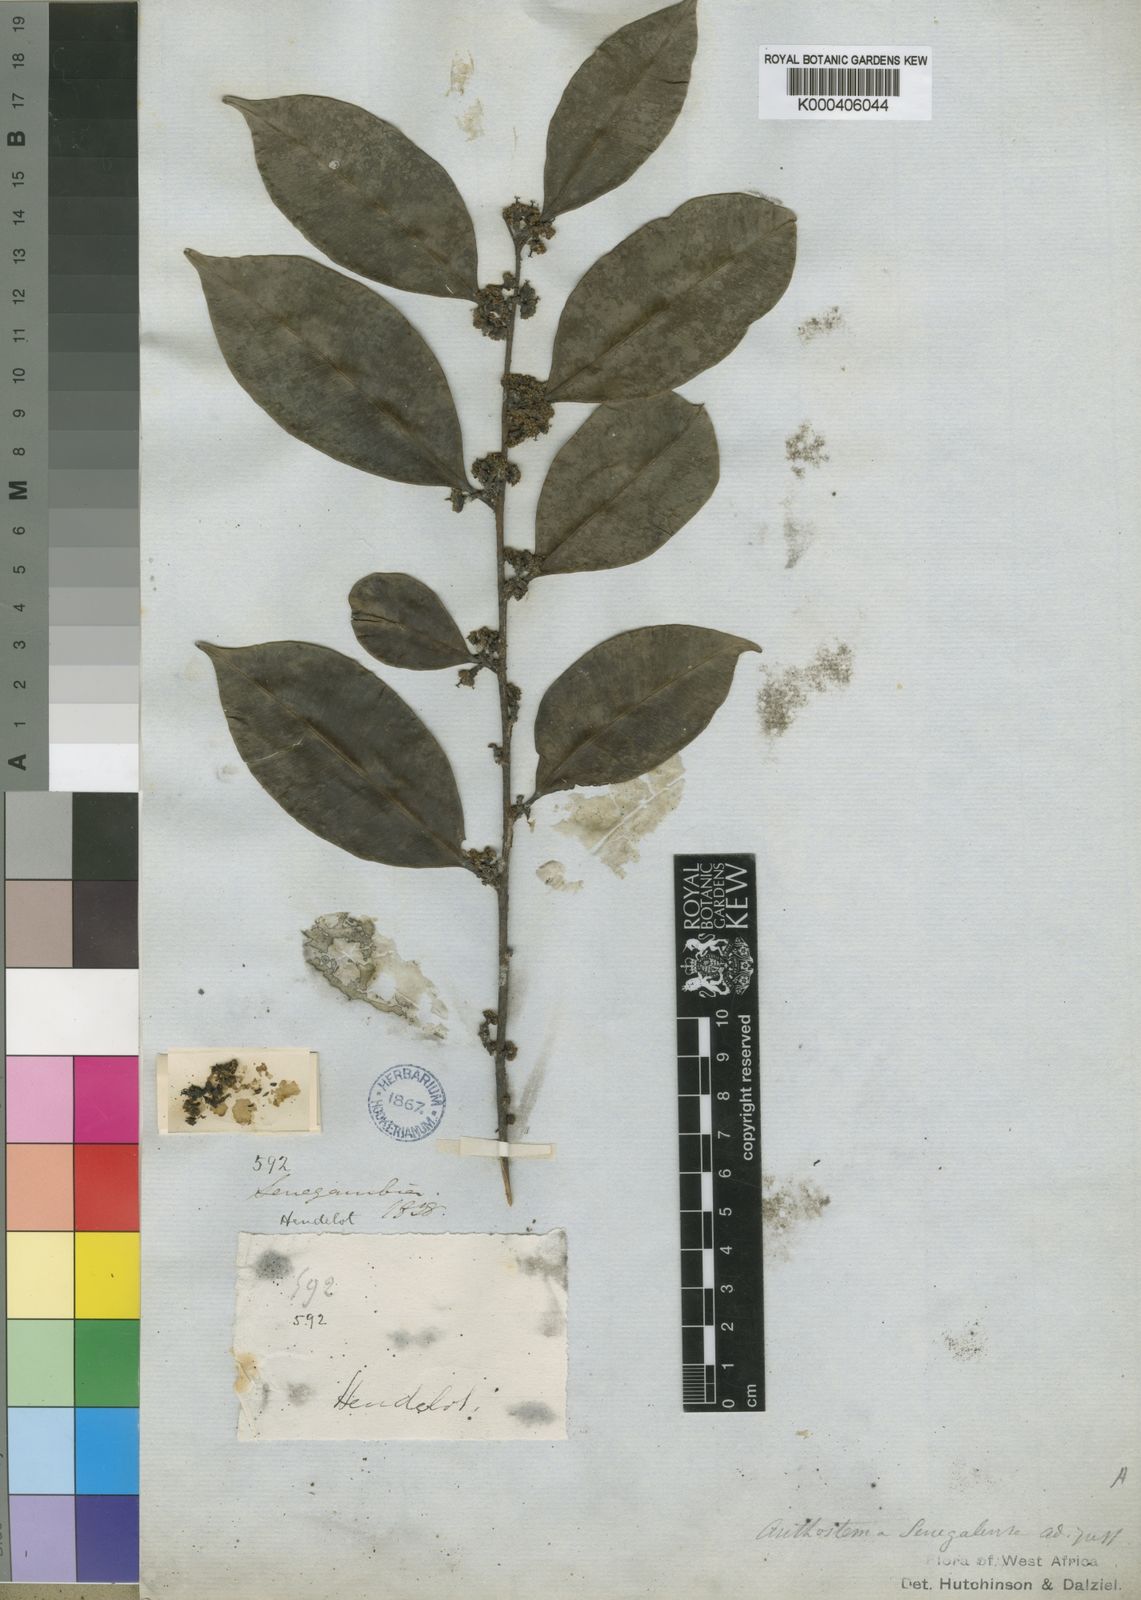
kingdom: Plantae
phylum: Tracheophyta
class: Magnoliopsida
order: Malpighiales
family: Euphorbiaceae
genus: Anthostema
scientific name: Anthostema senegalense
